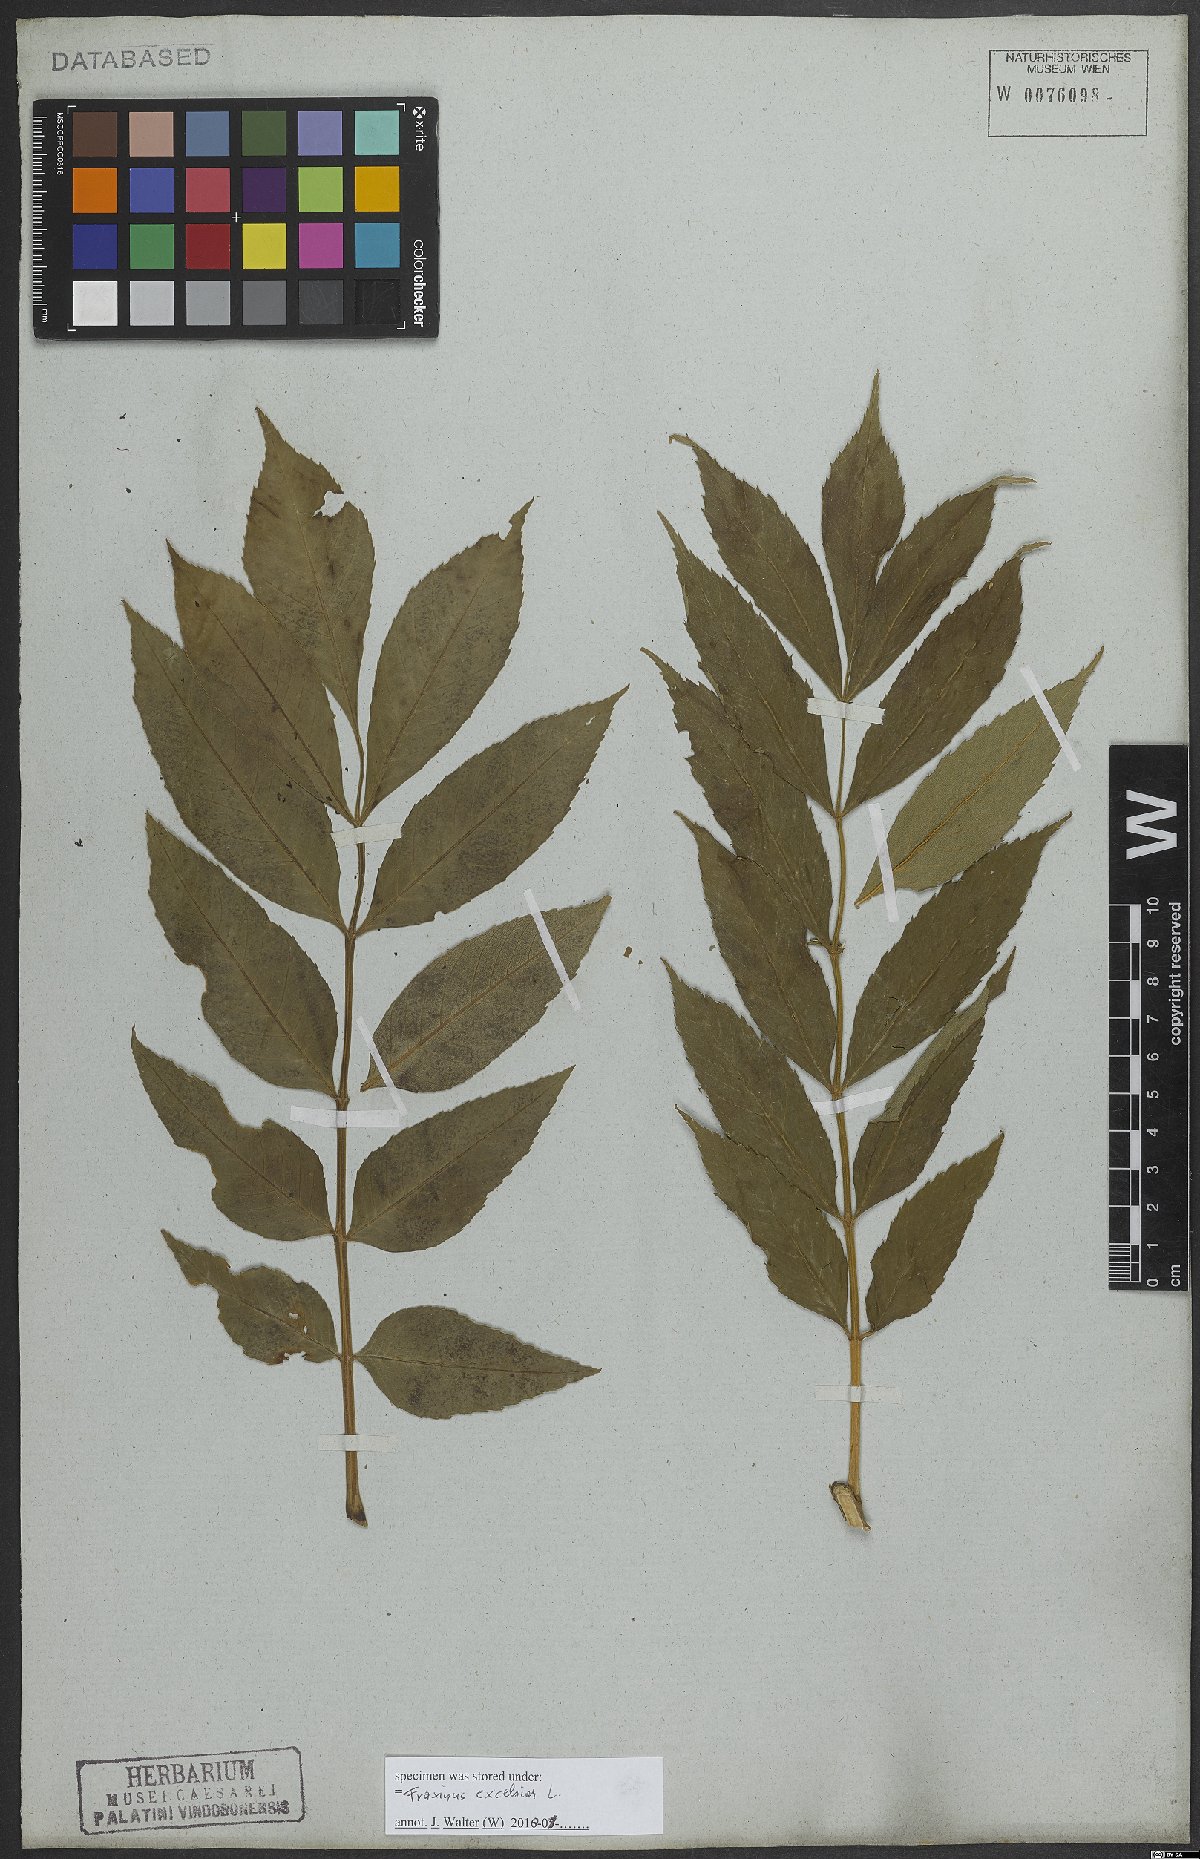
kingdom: Plantae
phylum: Tracheophyta
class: Magnoliopsida
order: Lamiales
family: Oleaceae
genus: Fraxinus
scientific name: Fraxinus excelsior
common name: European ash
